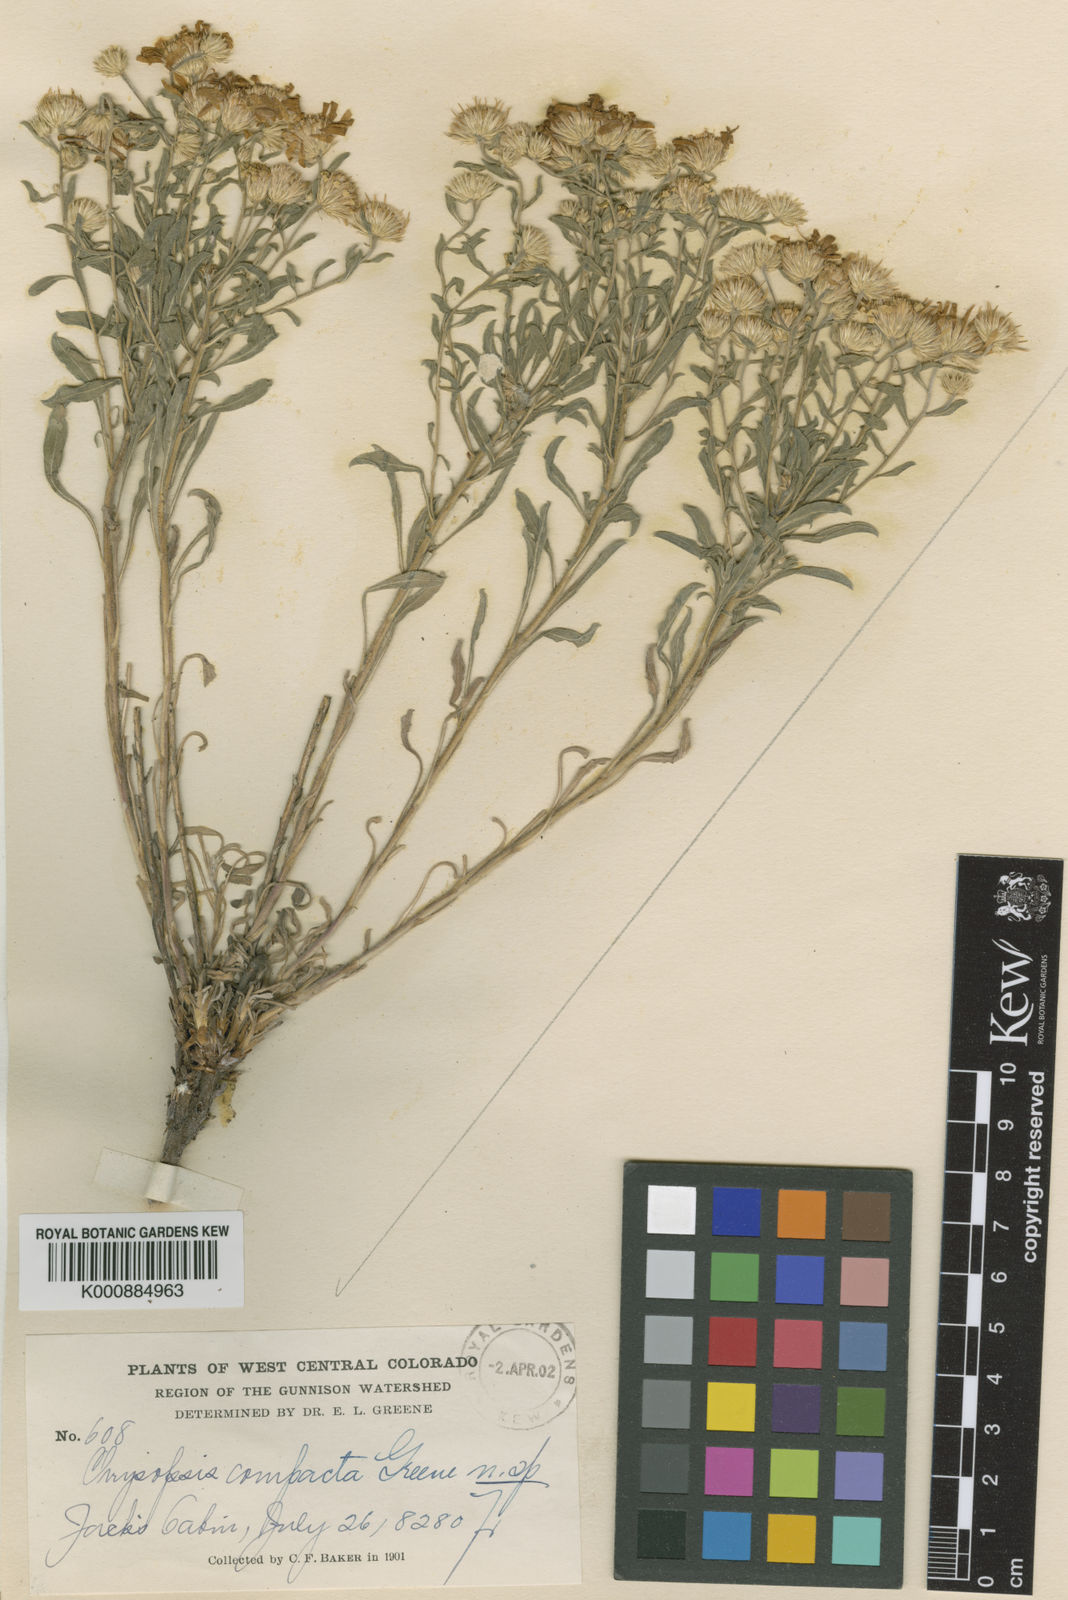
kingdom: Plantae
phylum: Tracheophyta
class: Magnoliopsida
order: Asterales
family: Asteraceae
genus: Heterotheca
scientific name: Heterotheca
